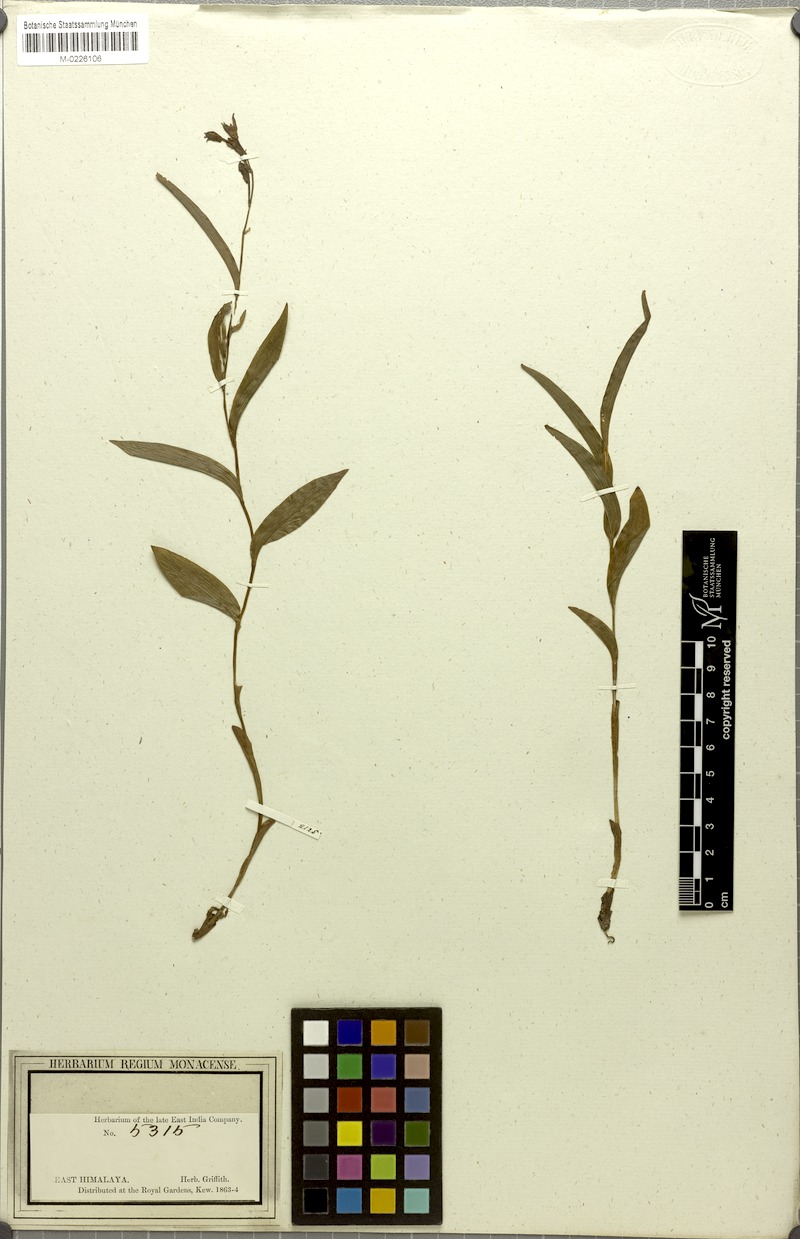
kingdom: Plantae
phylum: Tracheophyta
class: Liliopsida
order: Asparagales
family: Orchidaceae
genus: Cephalanthera
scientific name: Cephalanthera longifolia
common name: Narrow-leaved helleborine
